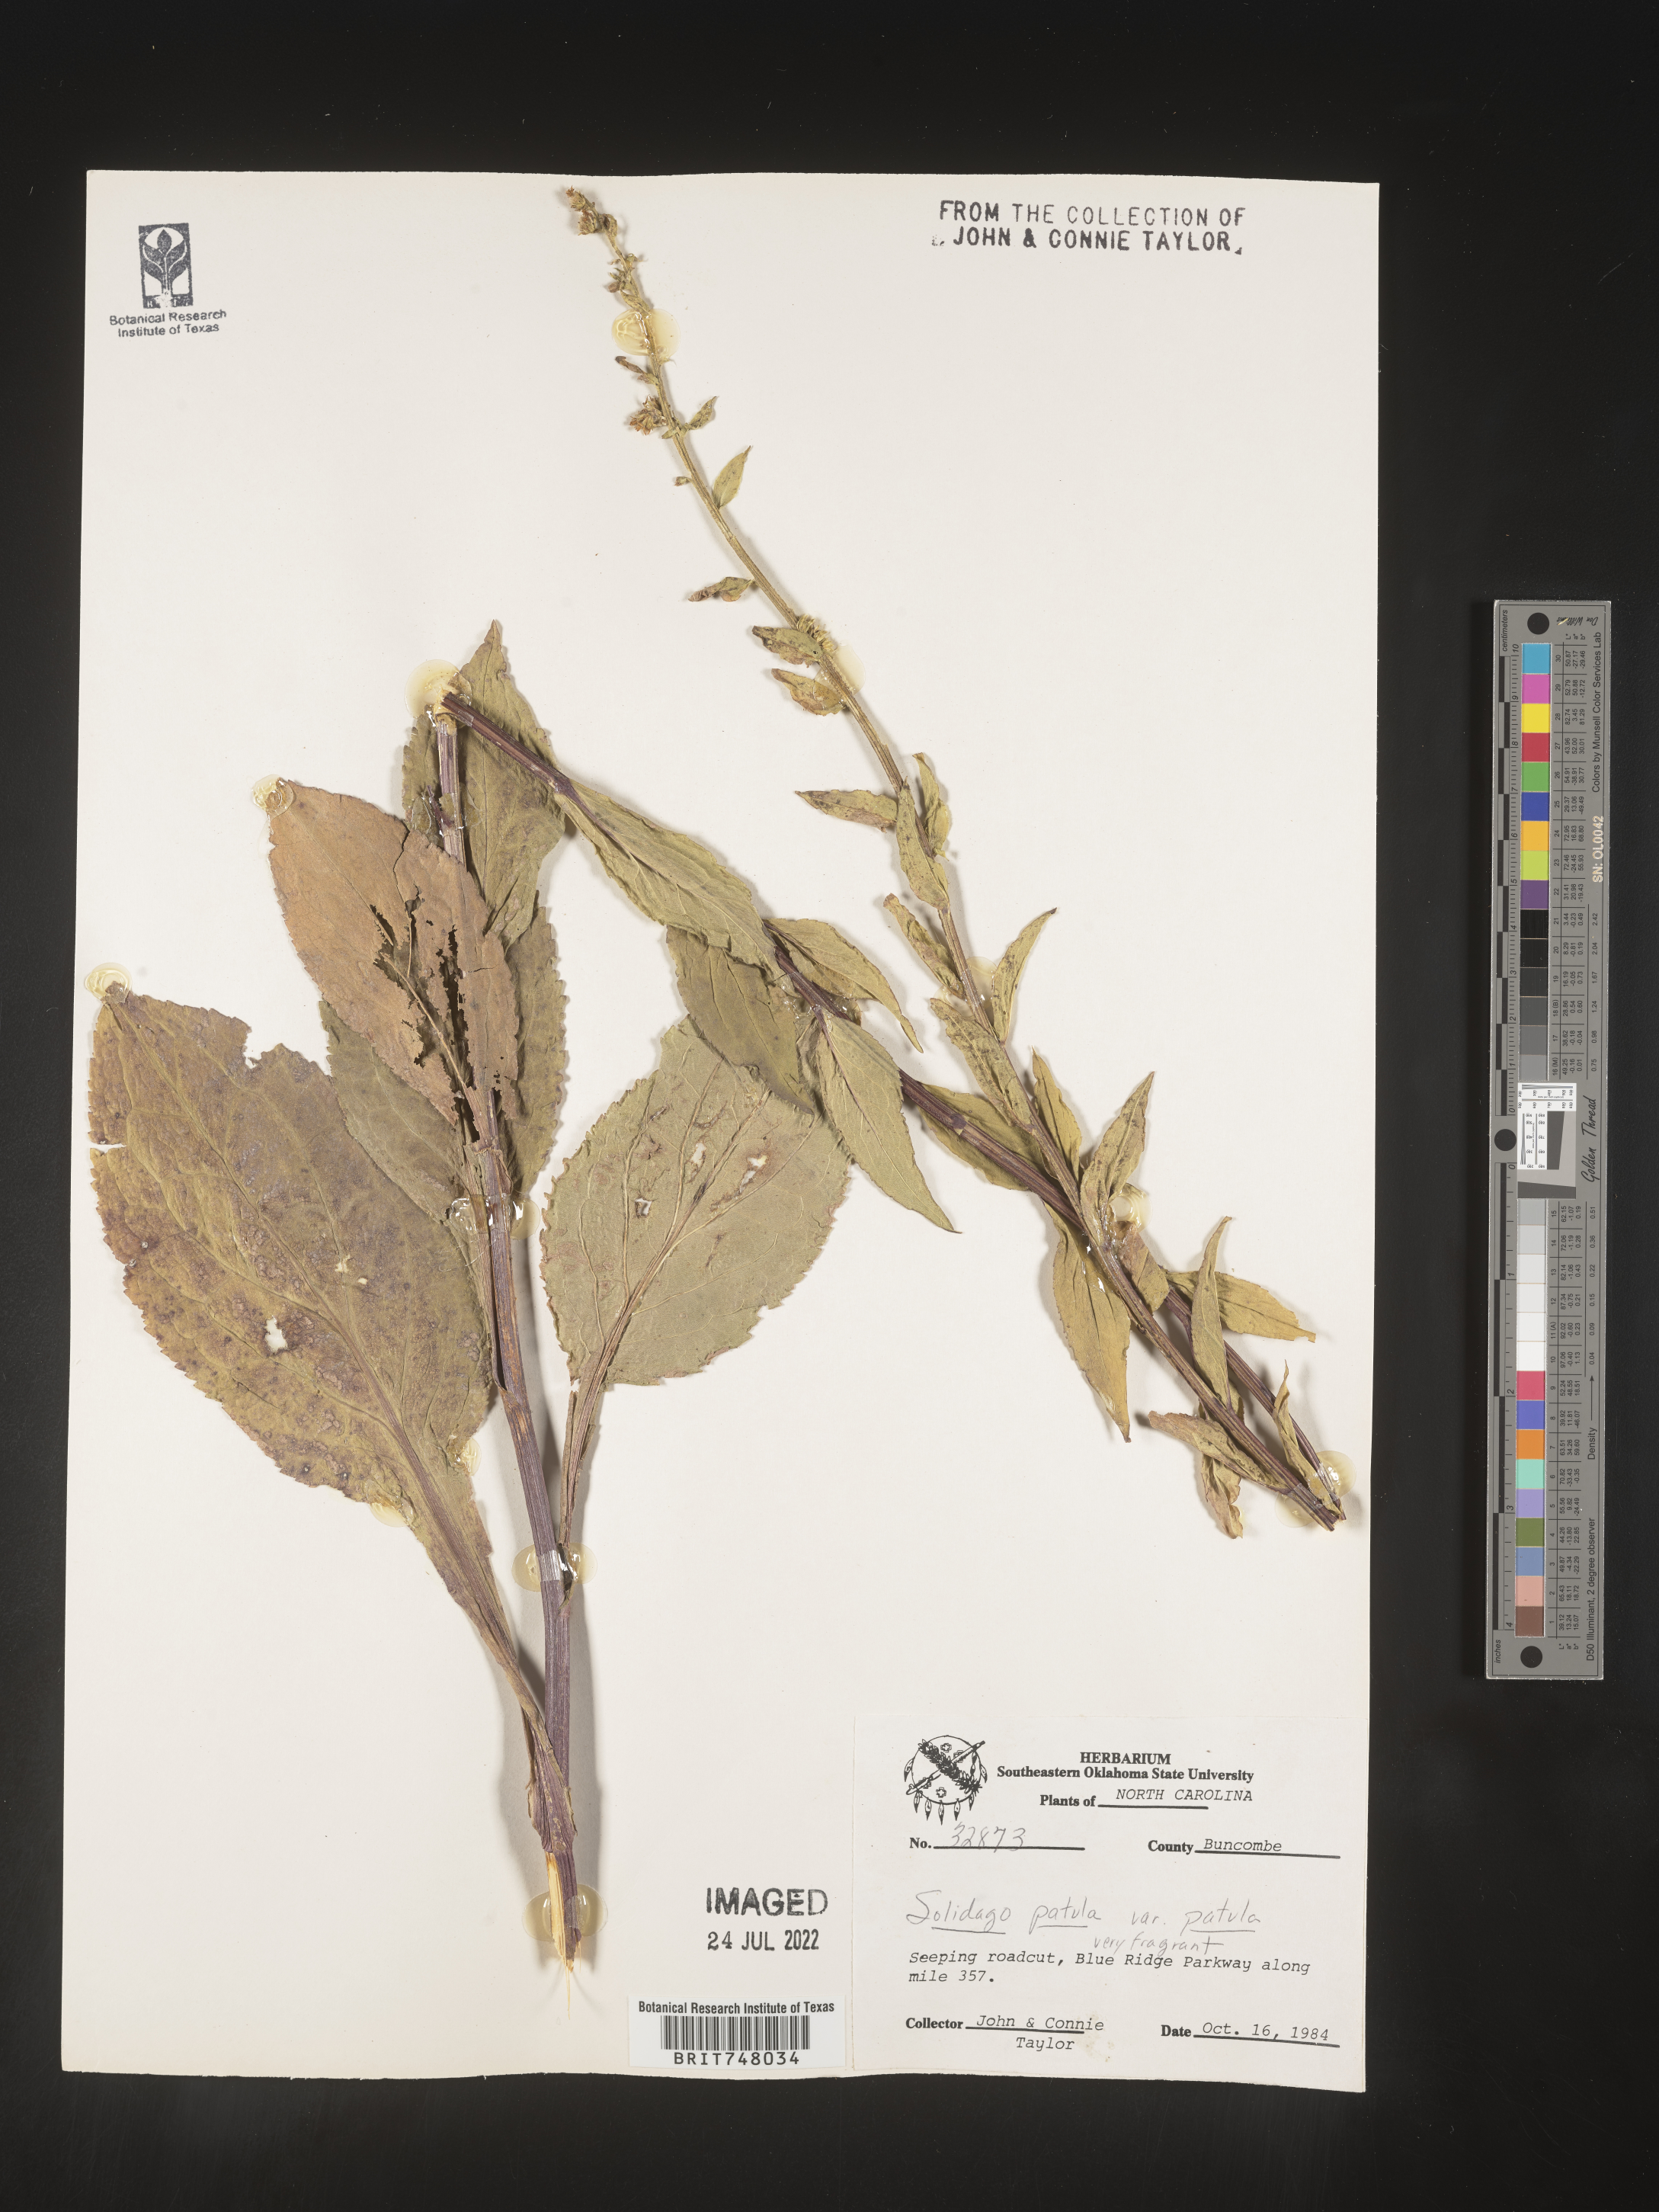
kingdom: Plantae
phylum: Tracheophyta
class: Magnoliopsida
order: Asterales
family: Asteraceae
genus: Solidago
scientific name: Solidago patula
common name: Rough-leaf goldenrod
